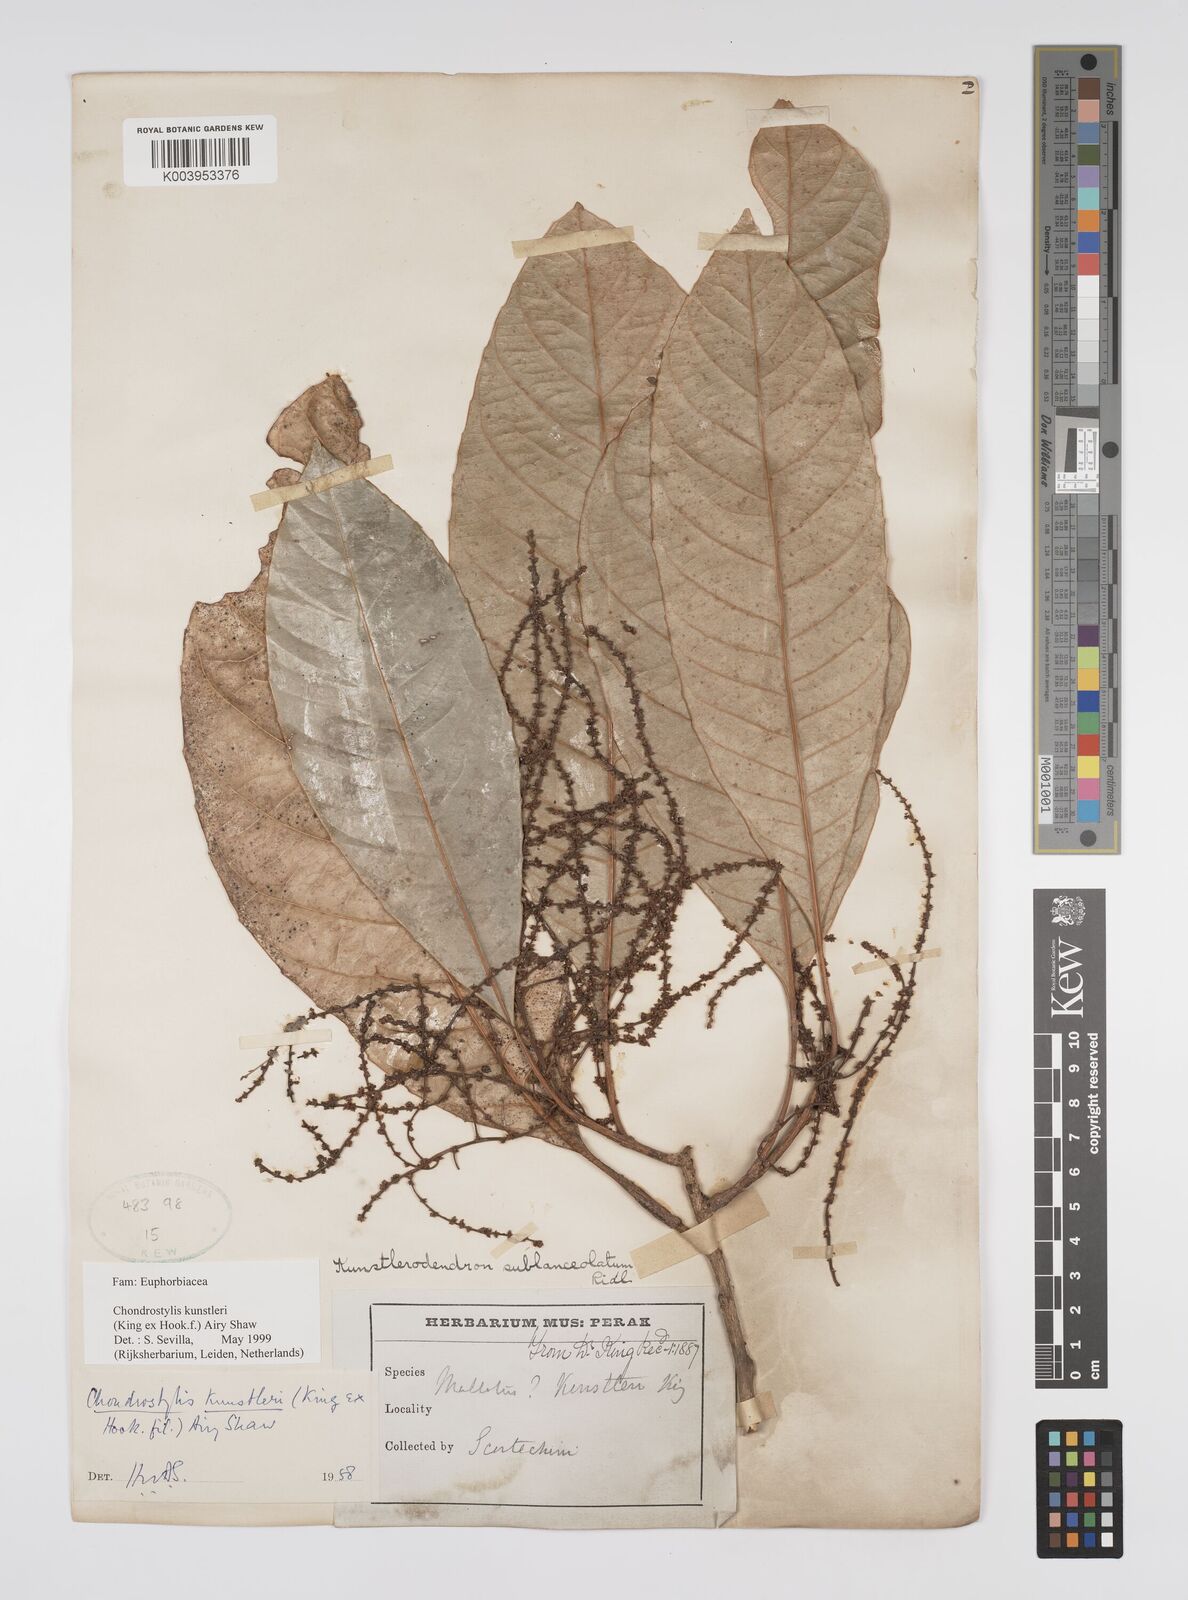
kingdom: Plantae
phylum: Tracheophyta
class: Magnoliopsida
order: Malpighiales
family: Euphorbiaceae
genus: Chondrostylis
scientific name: Chondrostylis kunstleri
